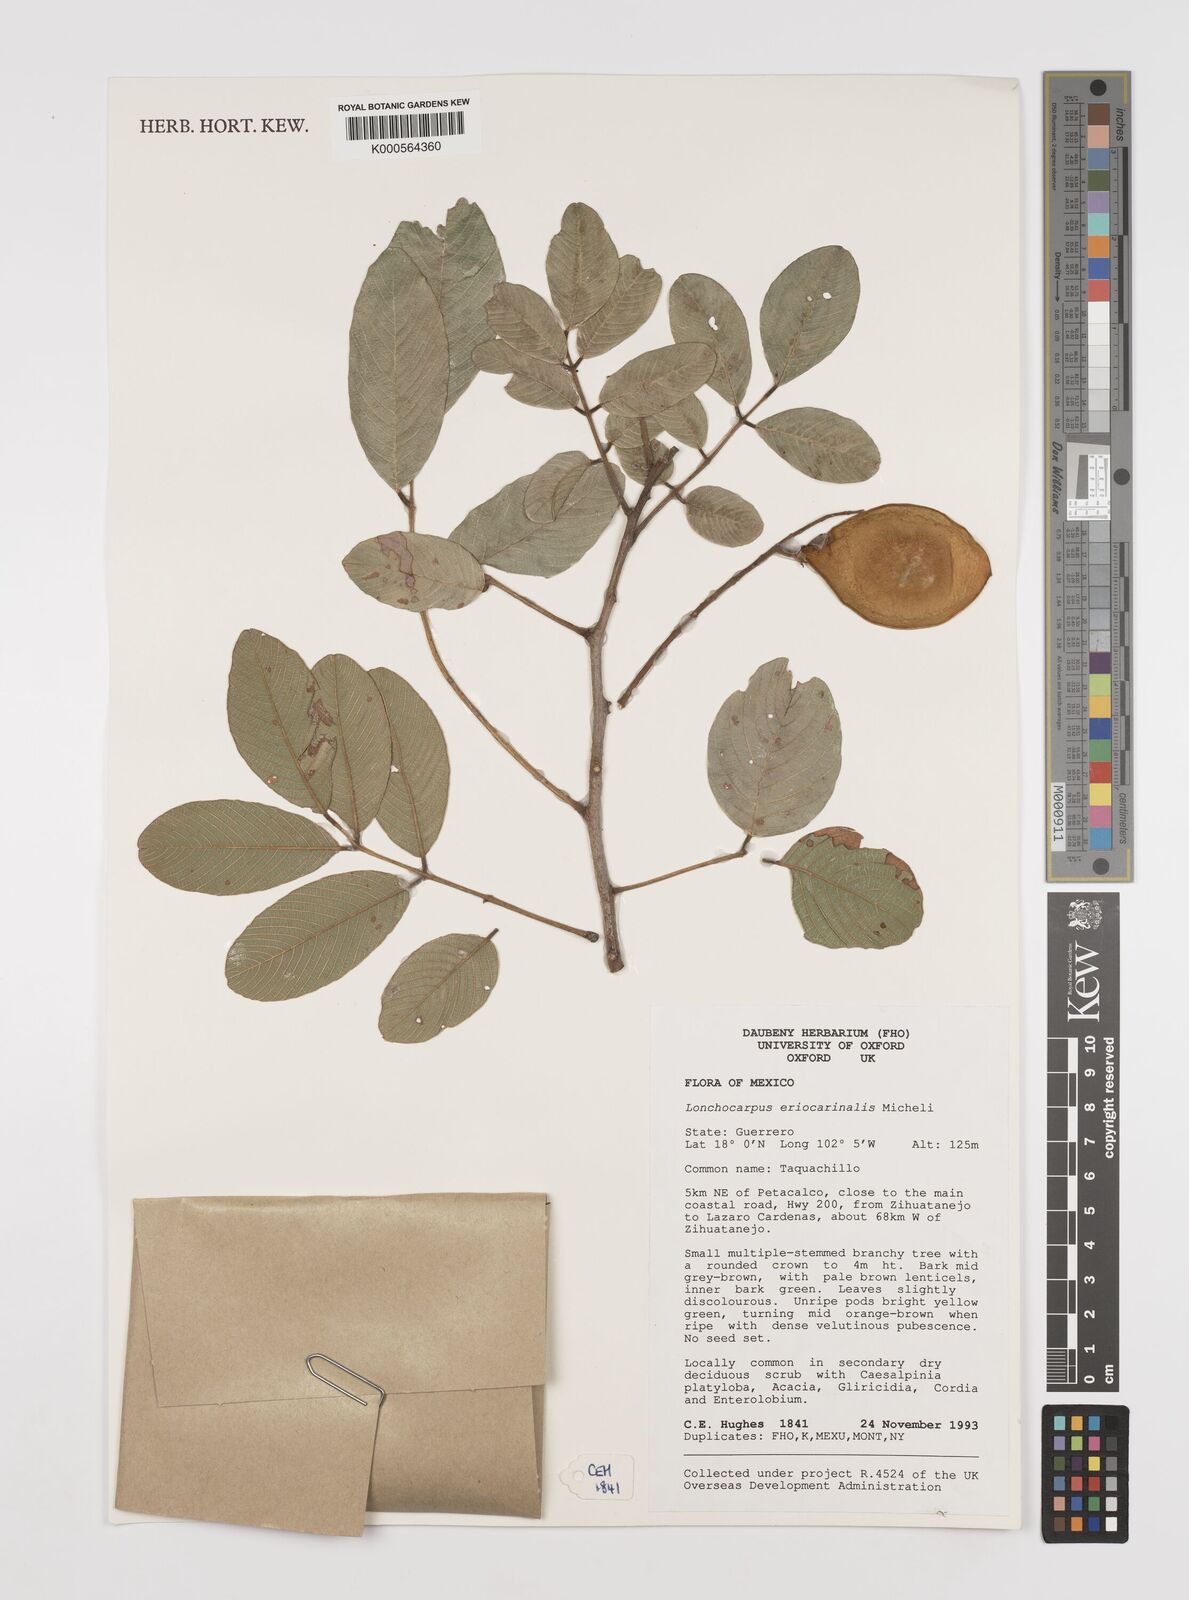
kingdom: Plantae
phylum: Tracheophyta
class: Magnoliopsida
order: Fabales
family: Fabaceae
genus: Lonchocarpus
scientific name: Lonchocarpus eriocarinalis
